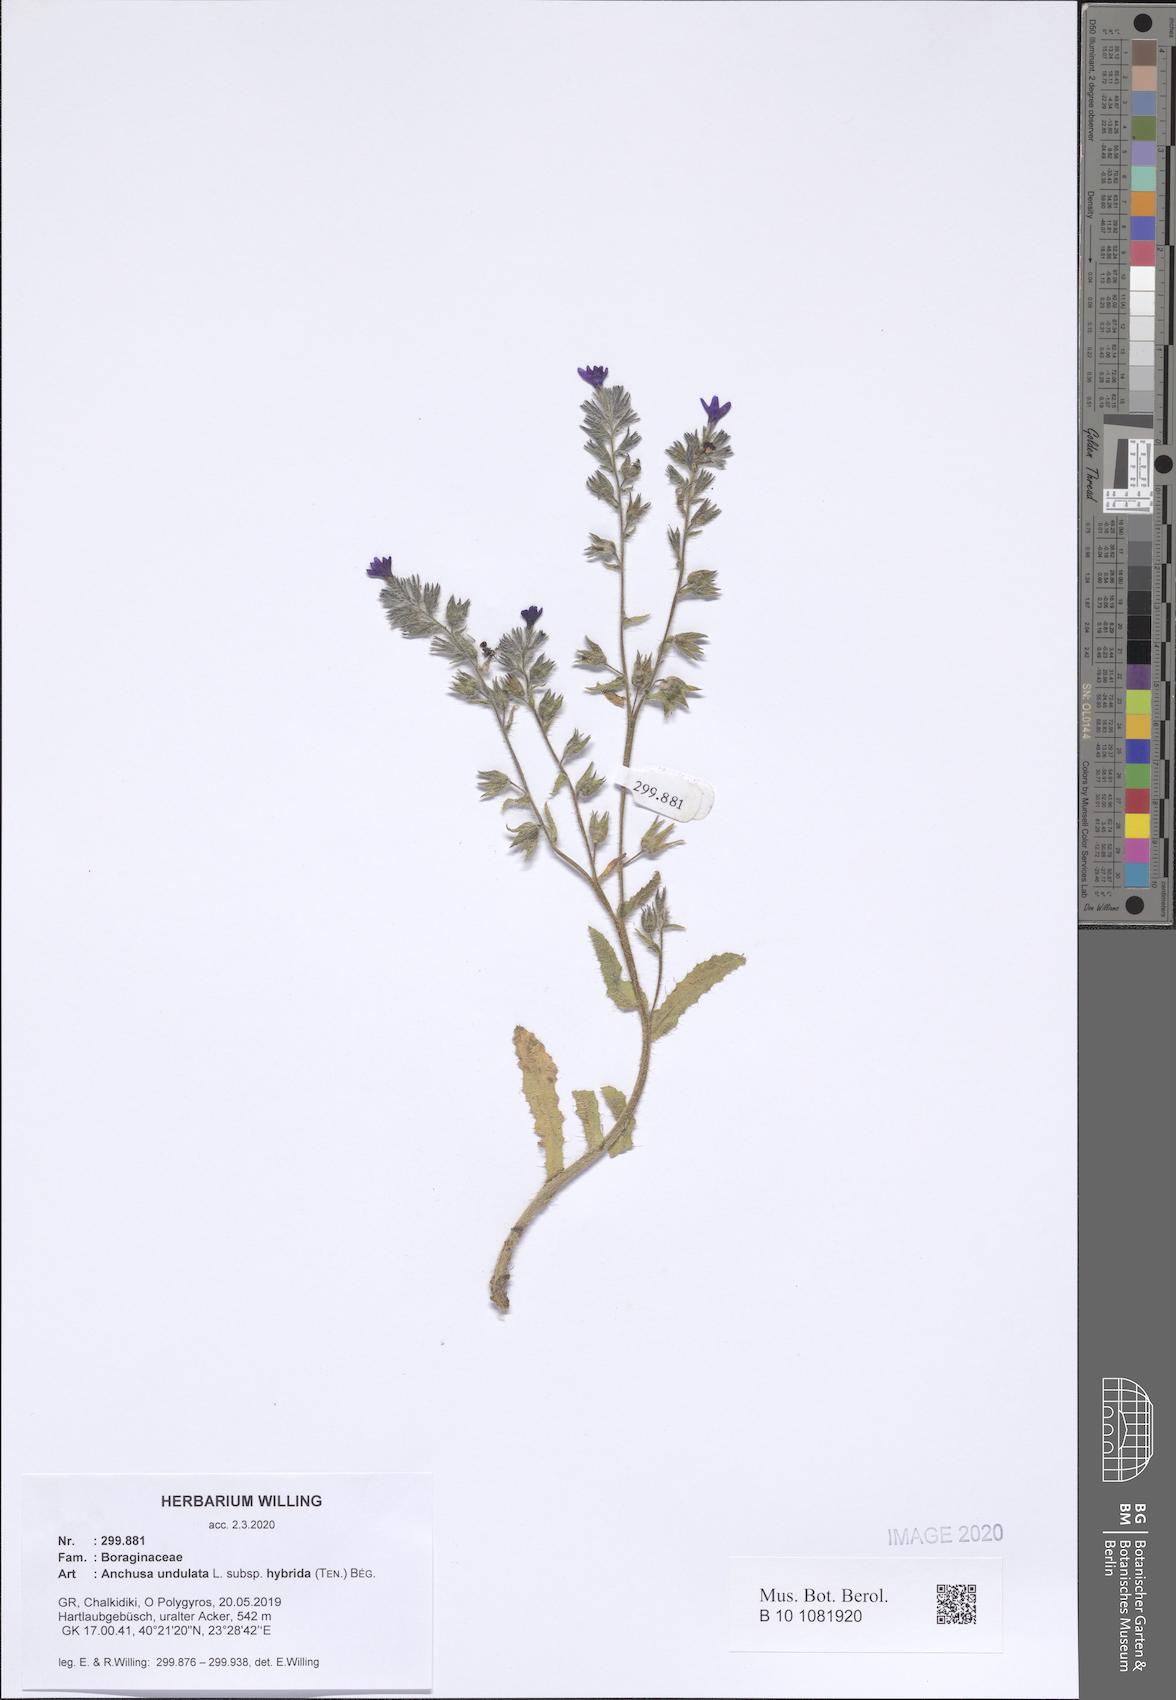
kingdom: Plantae
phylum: Tracheophyta
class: Magnoliopsida
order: Boraginales
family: Boraginaceae
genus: Anchusa
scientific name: Anchusa undulata
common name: Undulate alkanet
